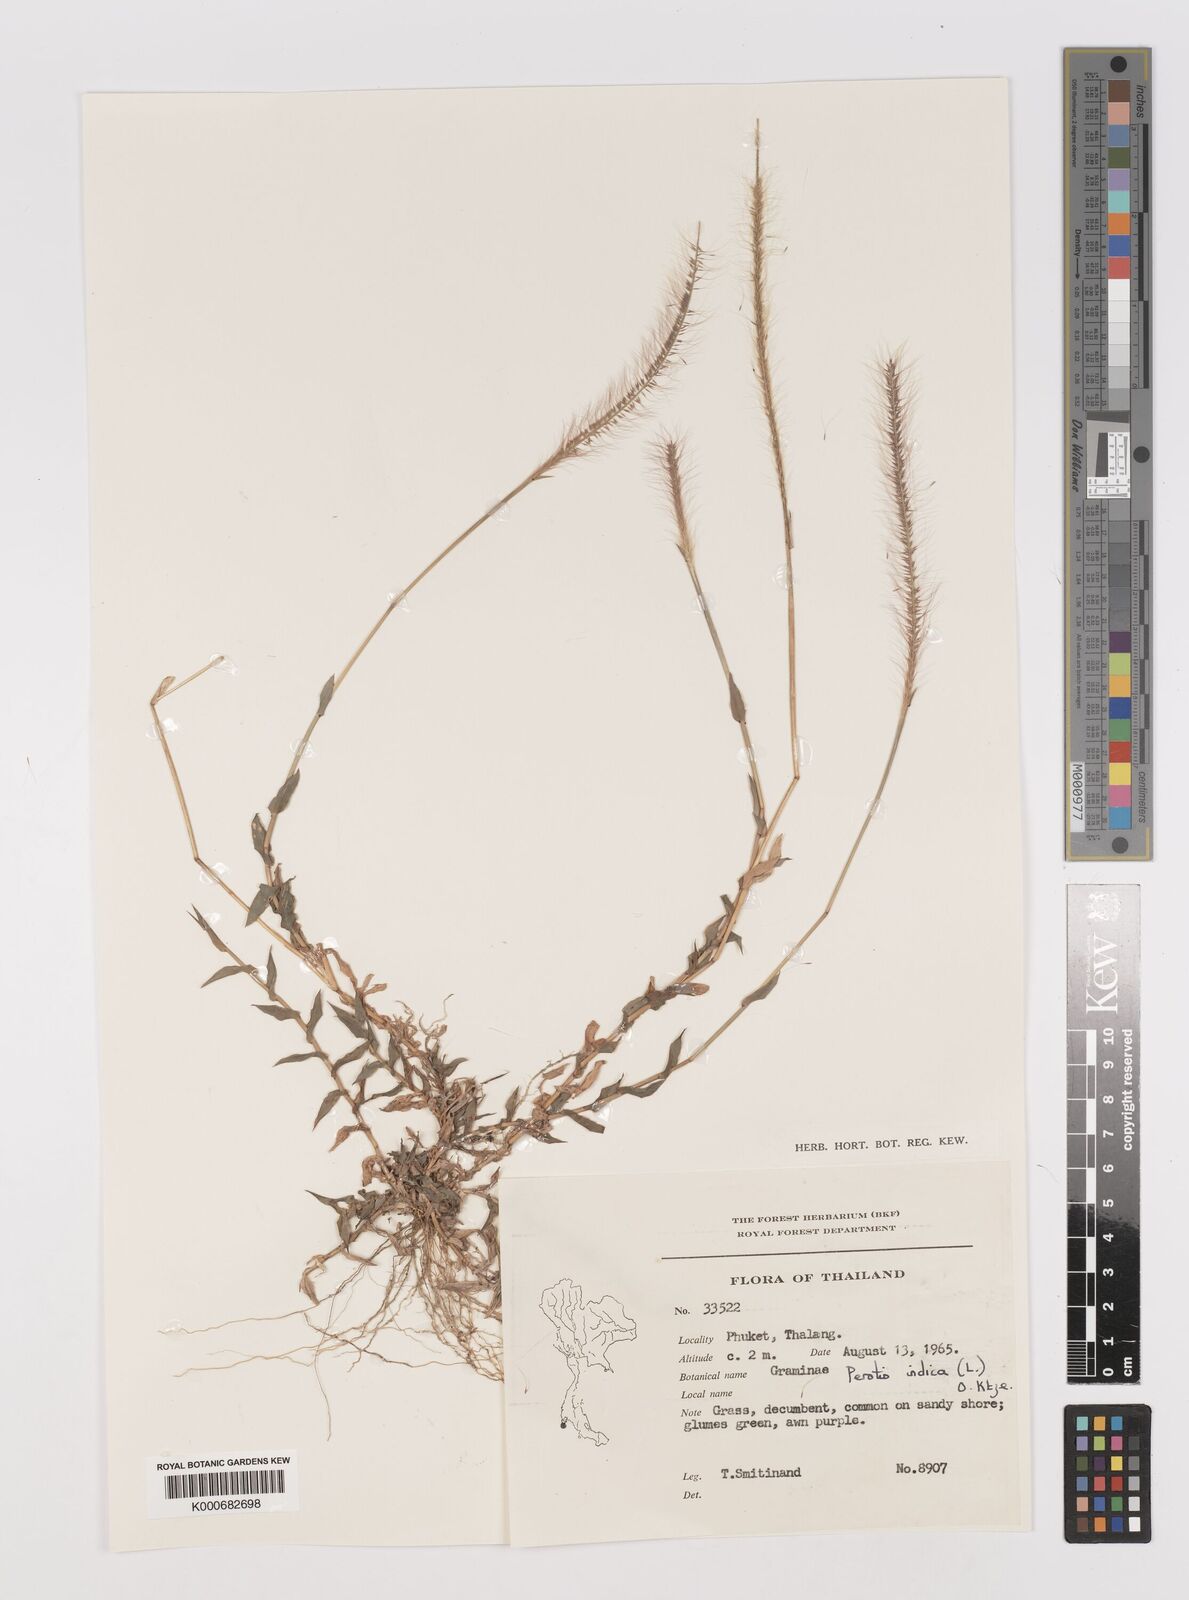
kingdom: Plantae
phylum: Tracheophyta
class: Liliopsida
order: Poales
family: Poaceae
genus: Perotis
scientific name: Perotis indica
